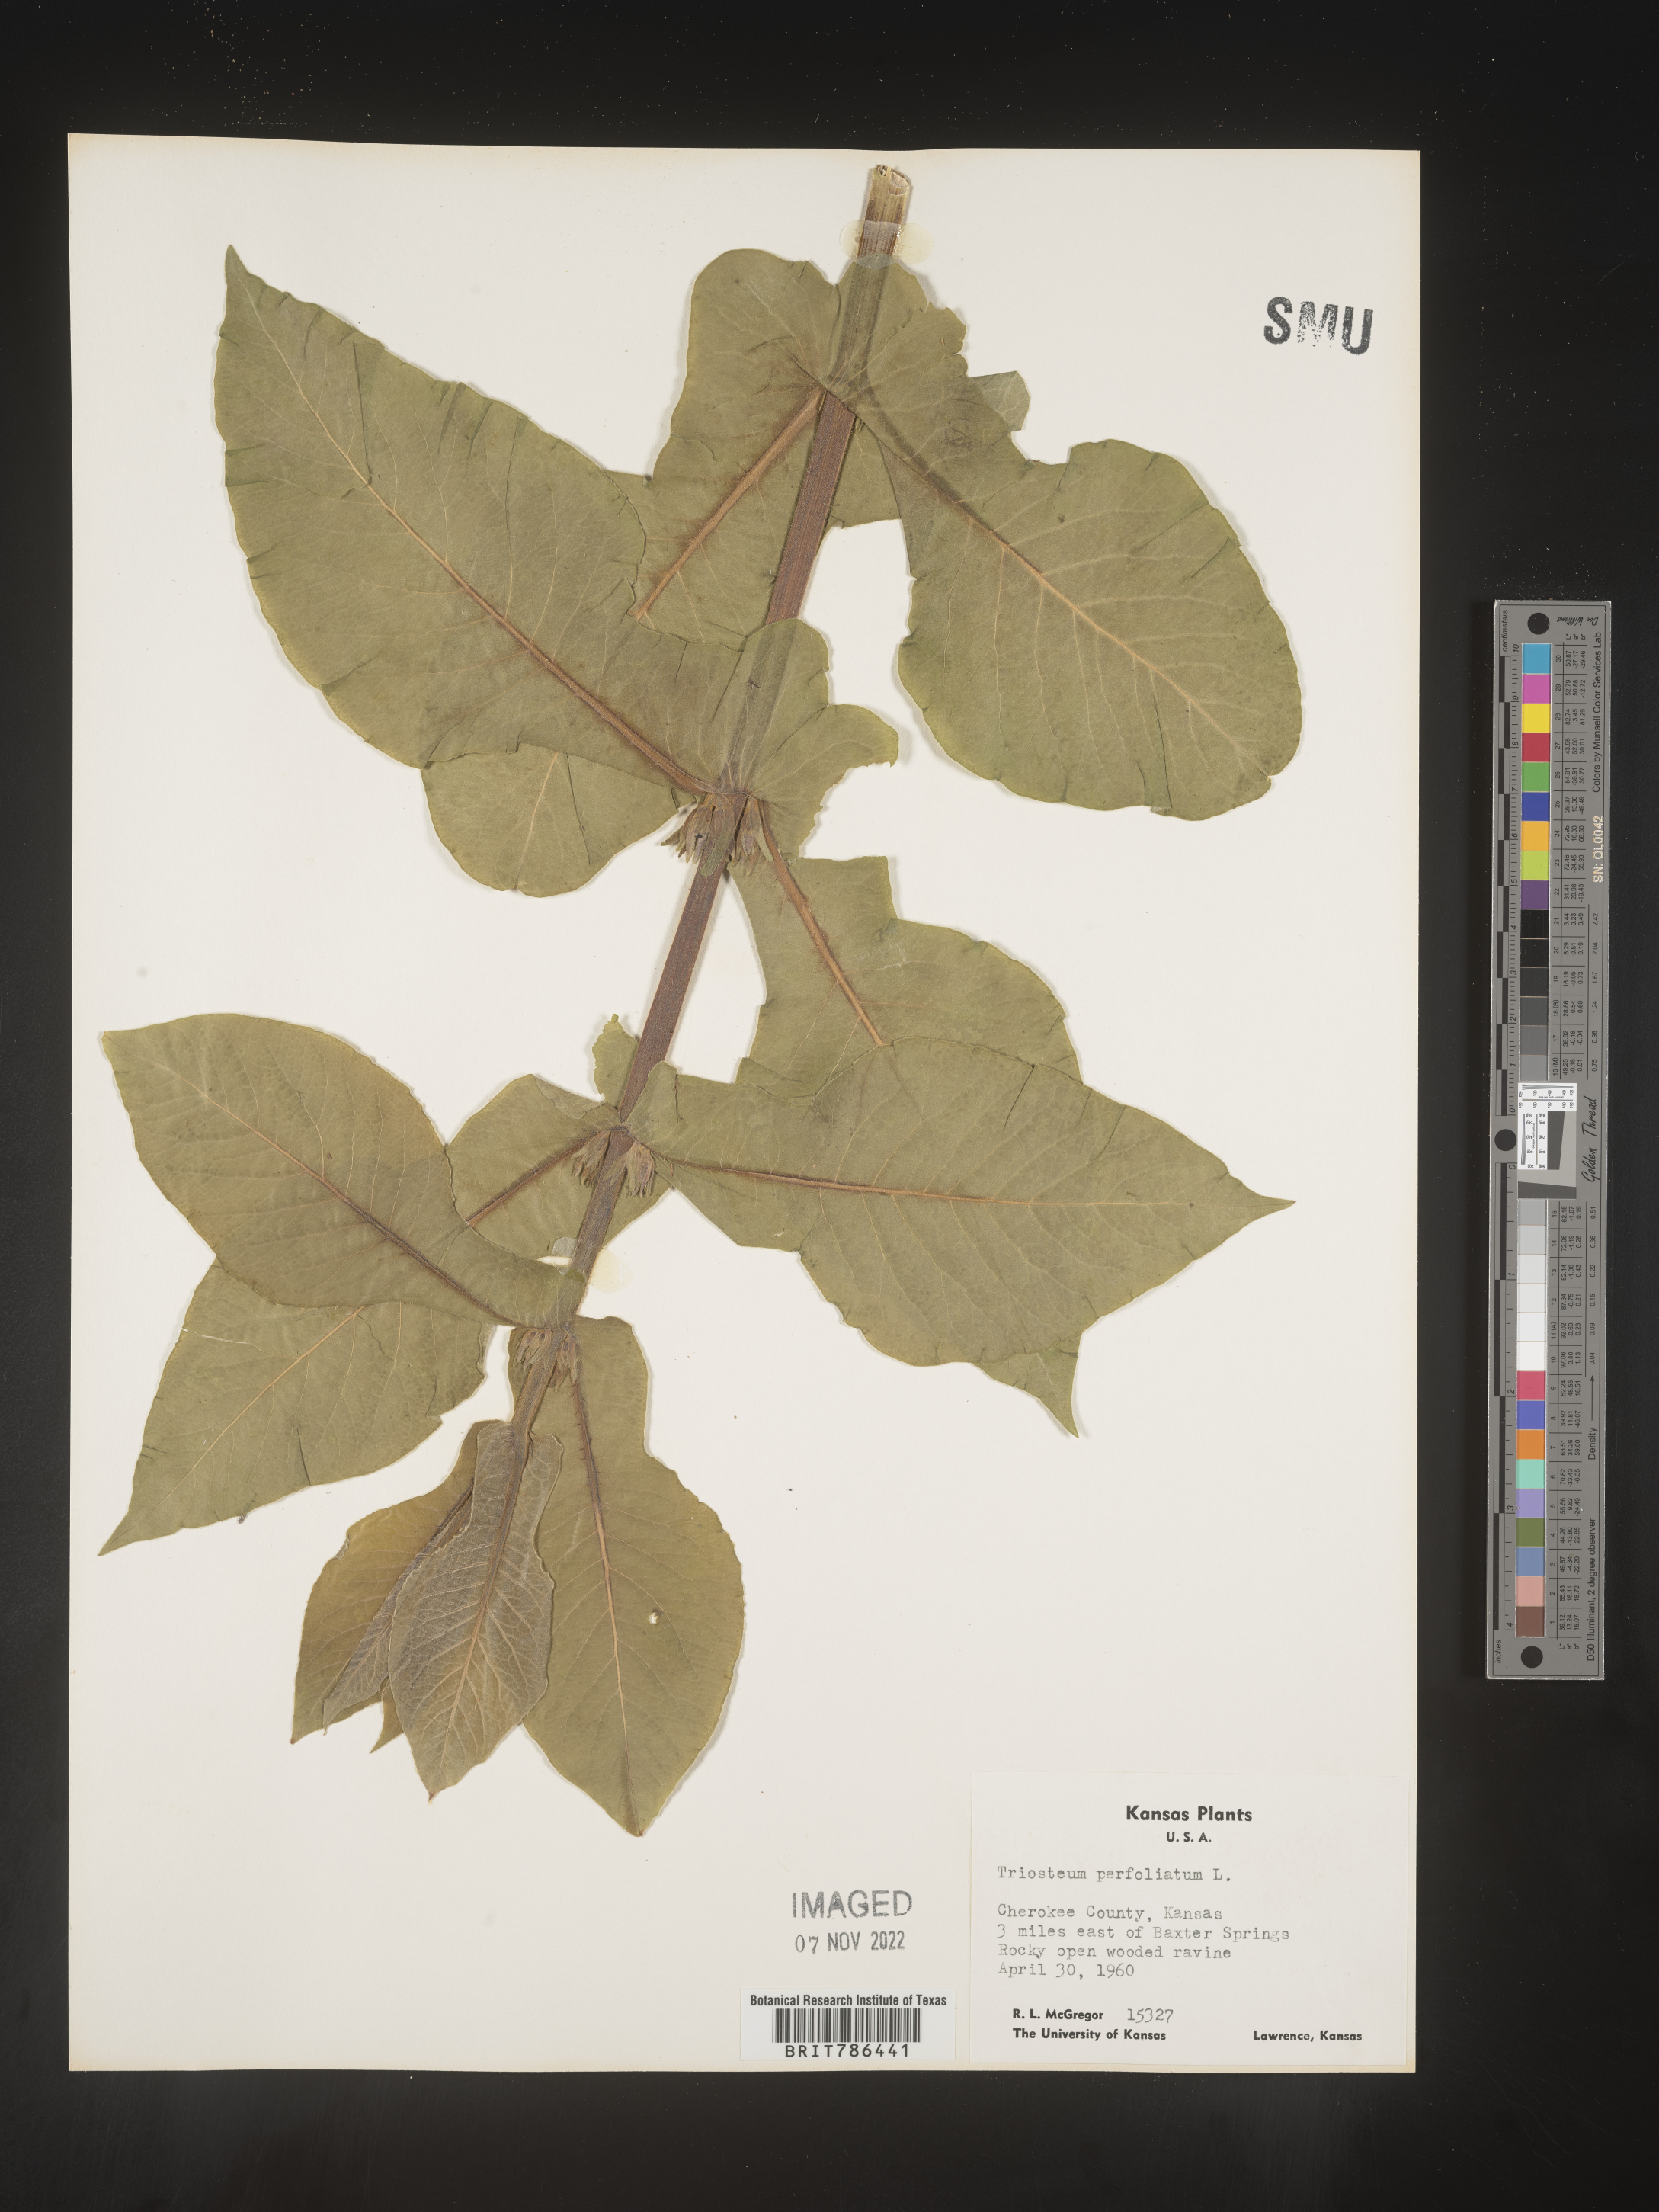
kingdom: Plantae
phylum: Tracheophyta
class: Magnoliopsida
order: Dipsacales
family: Caprifoliaceae
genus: Triosteum
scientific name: Triosteum perfoliatum
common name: Common horse-gentian
